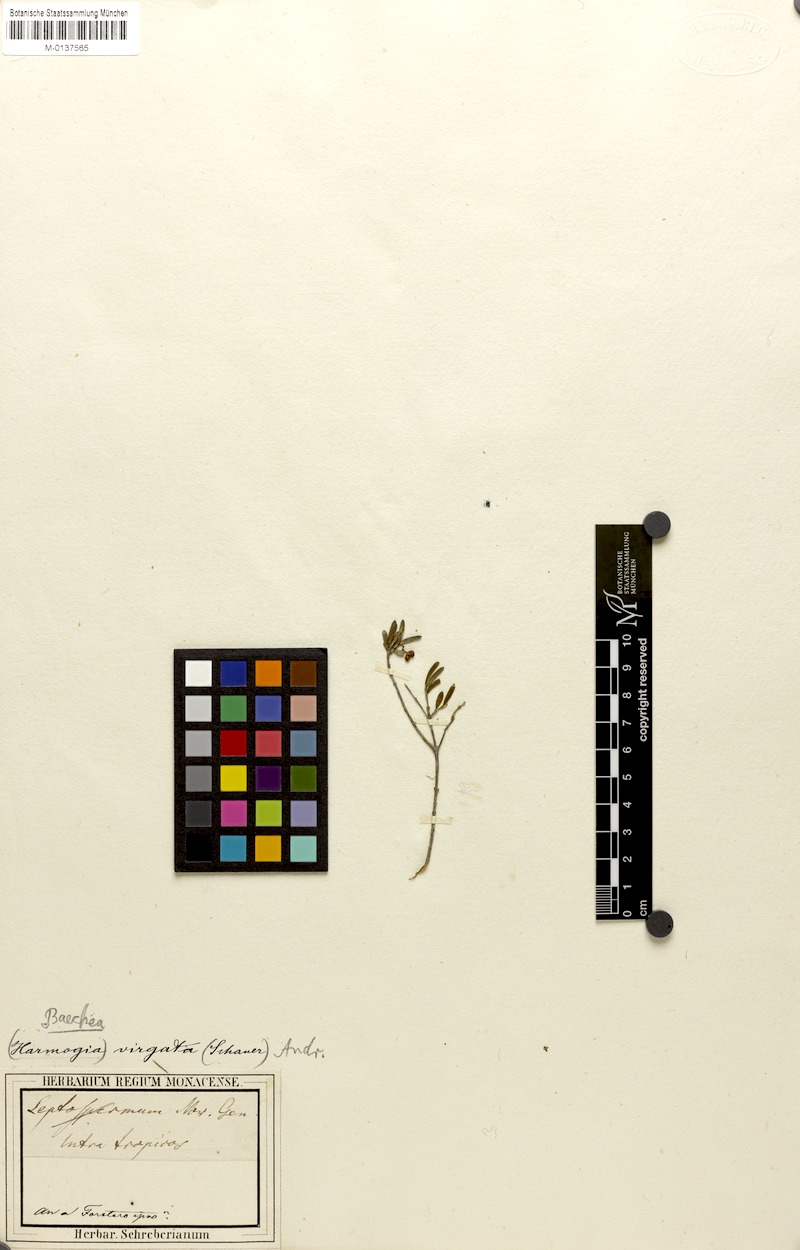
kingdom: Plantae
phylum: Tracheophyta
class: Magnoliopsida
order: Myrtales
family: Myrtaceae
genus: Sannantha
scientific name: Sannantha virgata
